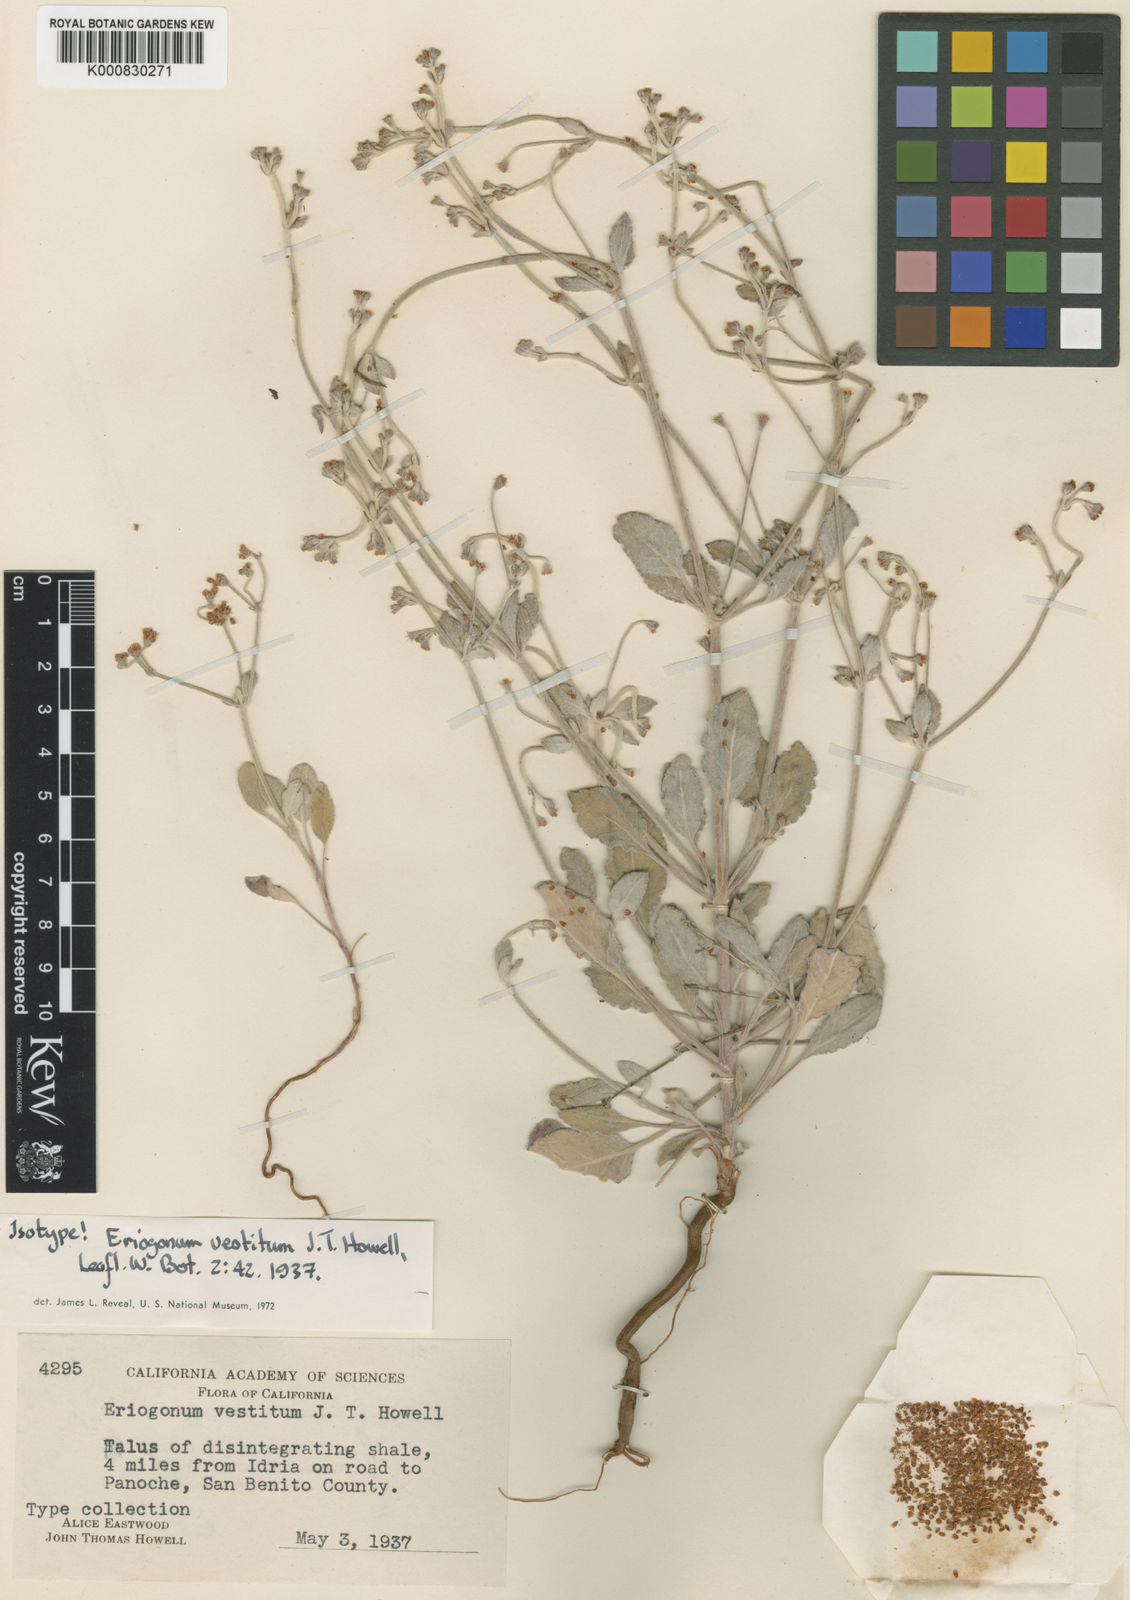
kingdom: Plantae
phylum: Tracheophyta
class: Magnoliopsida
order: Caryophyllales
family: Polygonaceae
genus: Eriogonum
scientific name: Eriogonum vestitum
